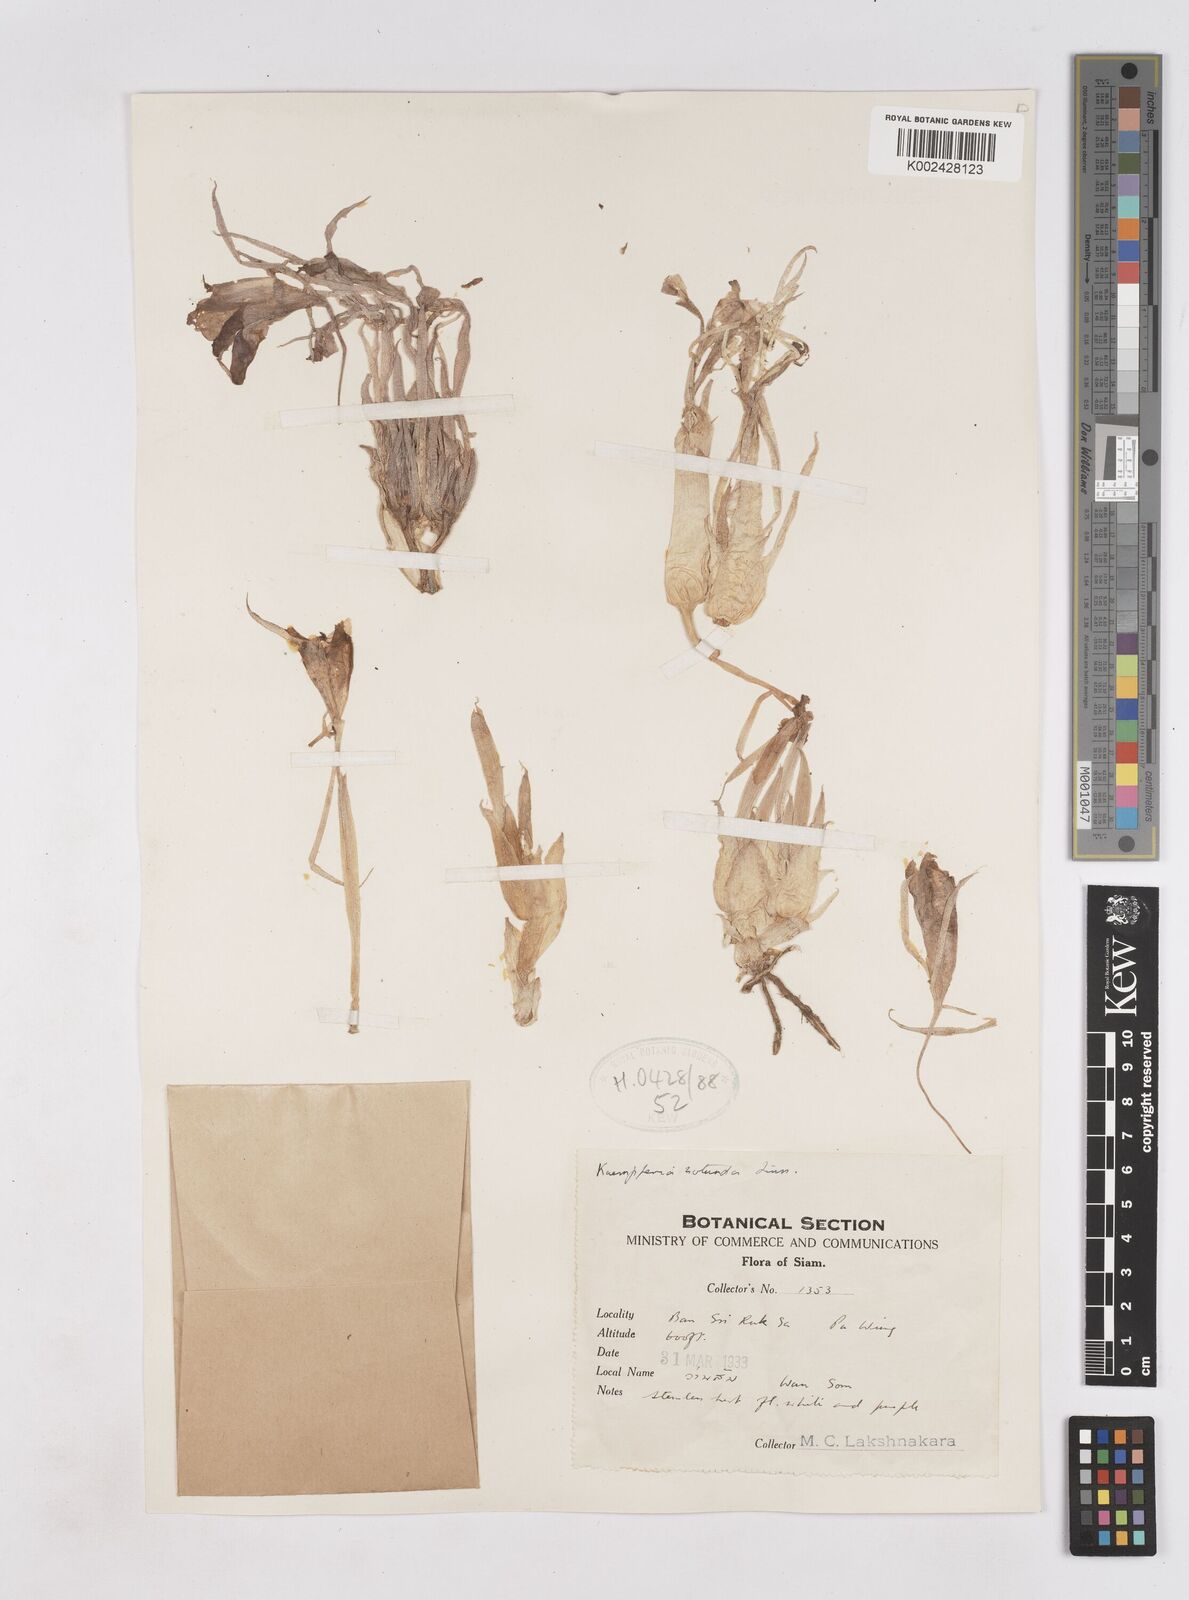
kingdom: Plantae
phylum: Tracheophyta
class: Liliopsida
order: Zingiberales
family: Zingiberaceae
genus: Kaempferia
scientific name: Kaempferia rotunda
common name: Tropical-crocus
